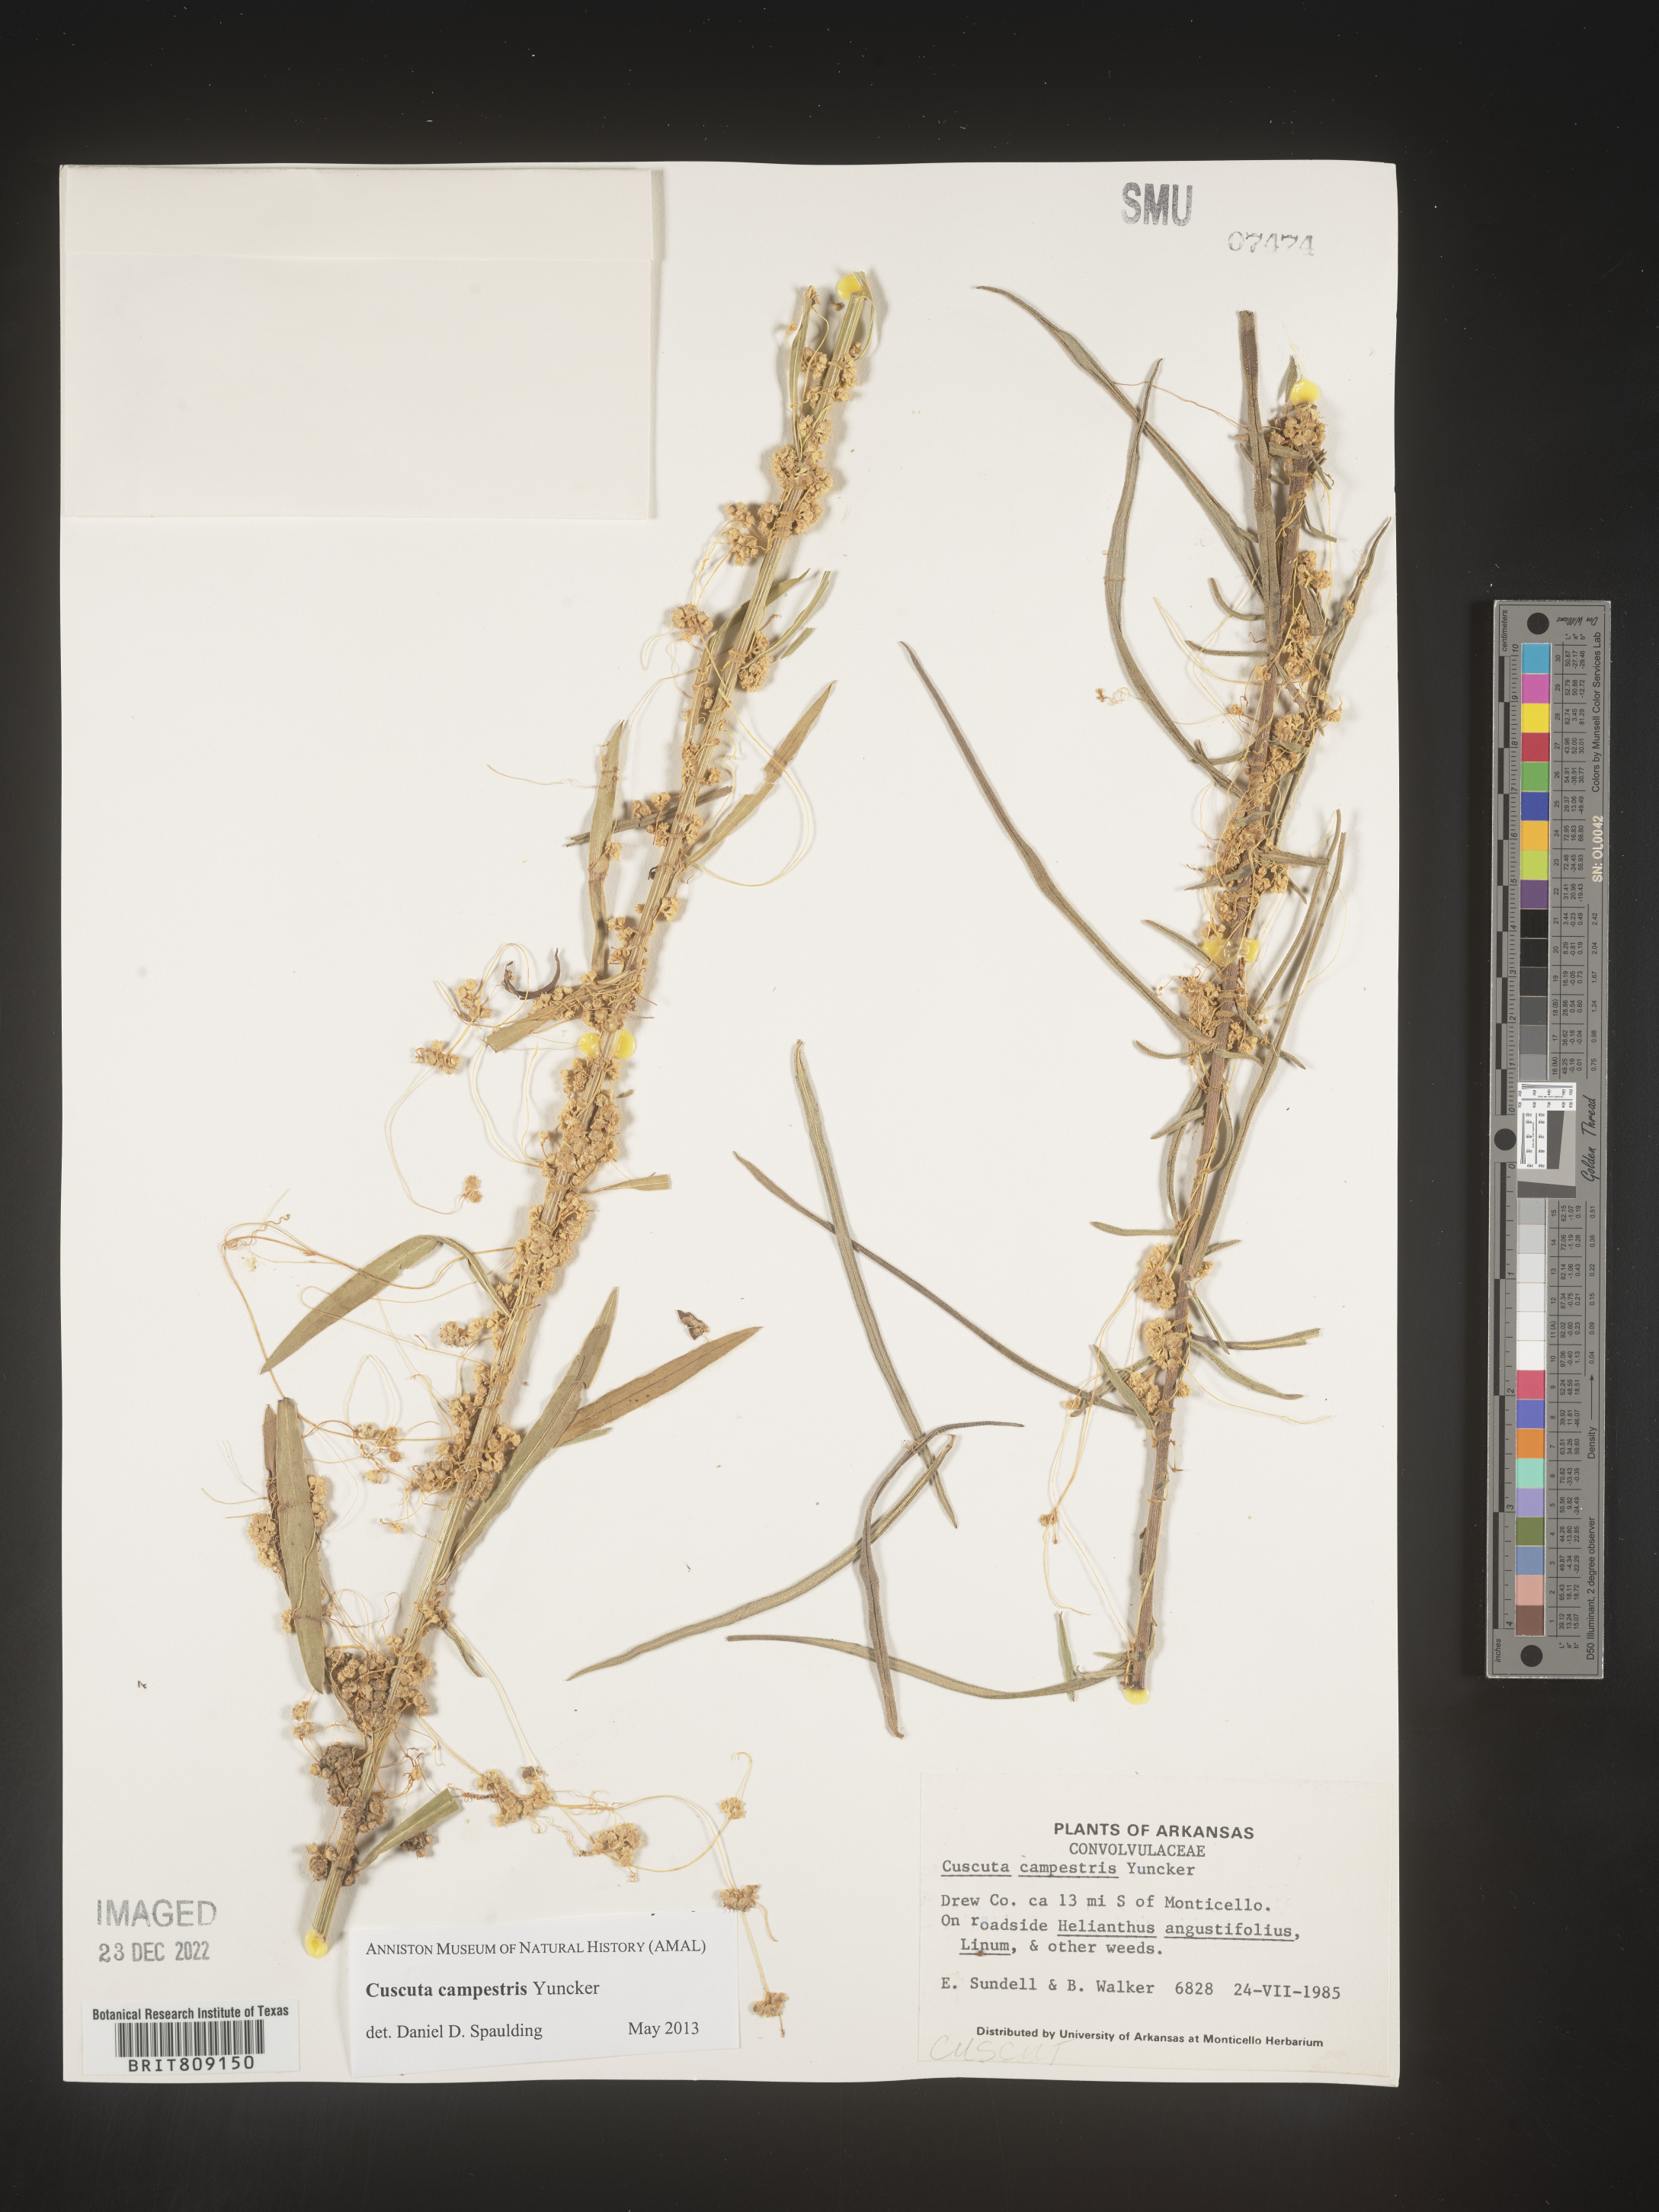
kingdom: Plantae
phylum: Tracheophyta
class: Magnoliopsida
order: Solanales
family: Convolvulaceae
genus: Cuscuta
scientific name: Cuscuta campestris
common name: Yellow dodder
